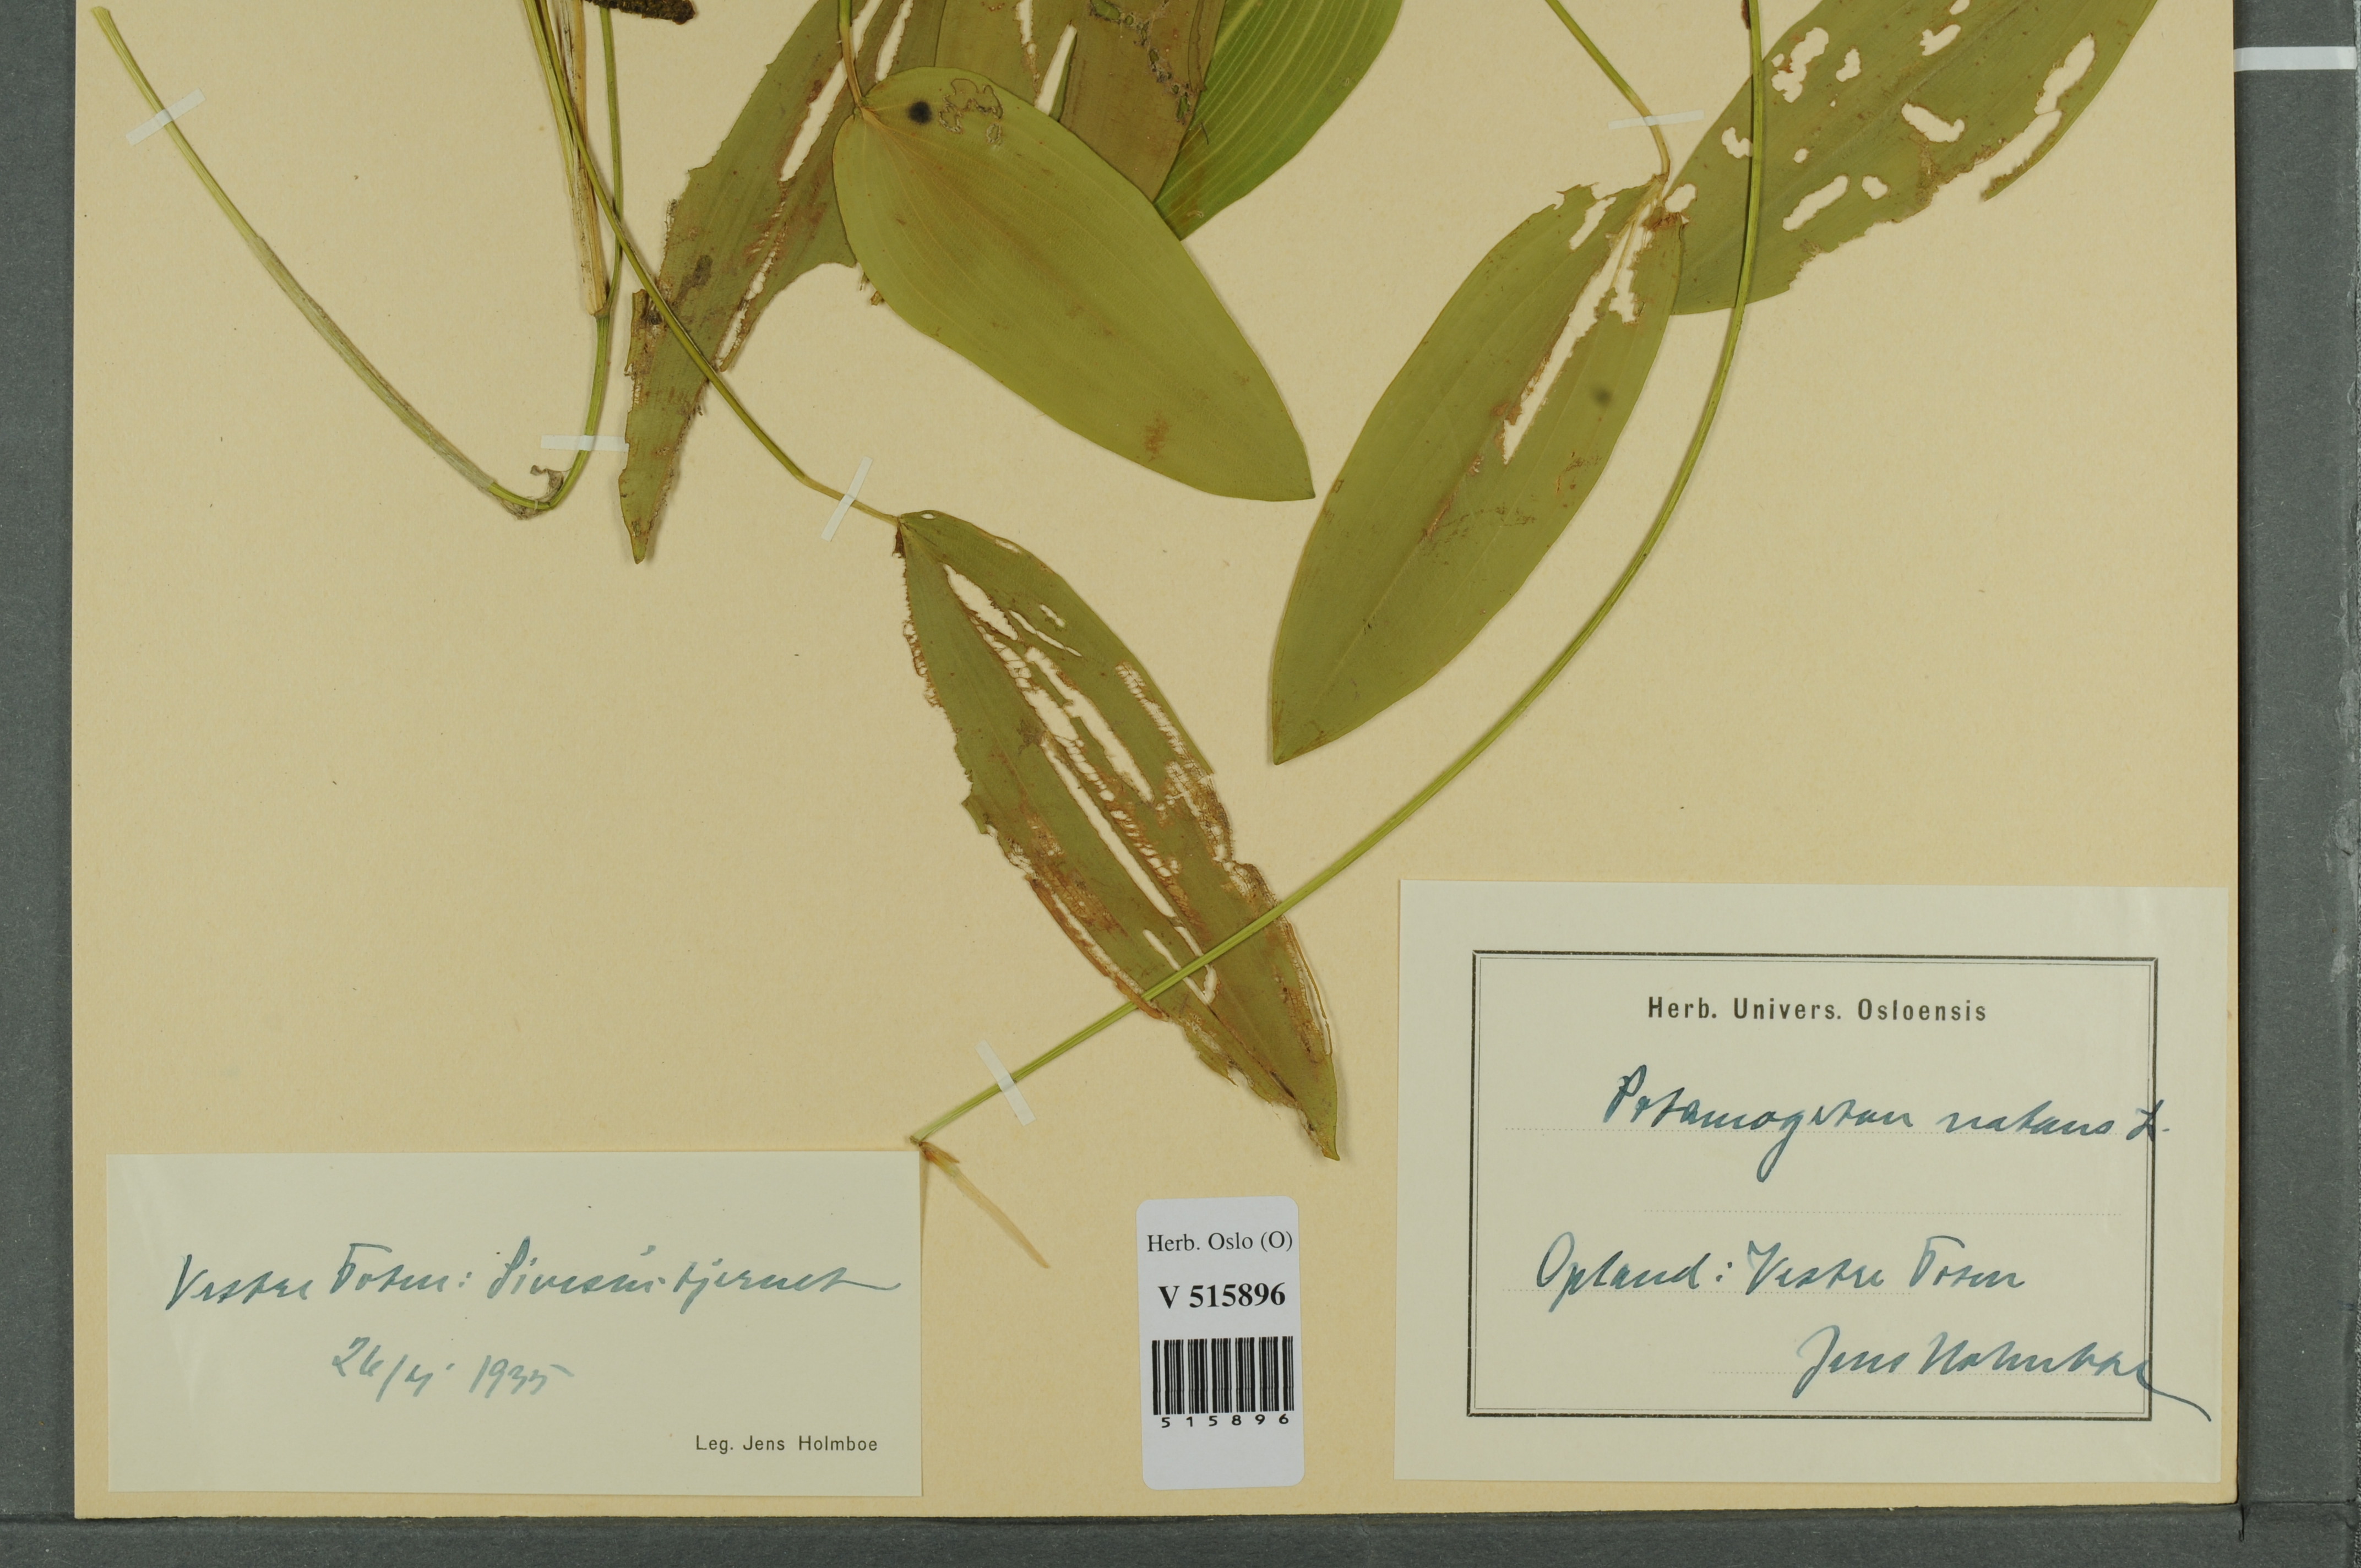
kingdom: Plantae
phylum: Tracheophyta
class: Liliopsida
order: Alismatales
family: Potamogetonaceae
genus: Potamogeton
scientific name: Potamogeton natans
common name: Broad-leaved pondweed
